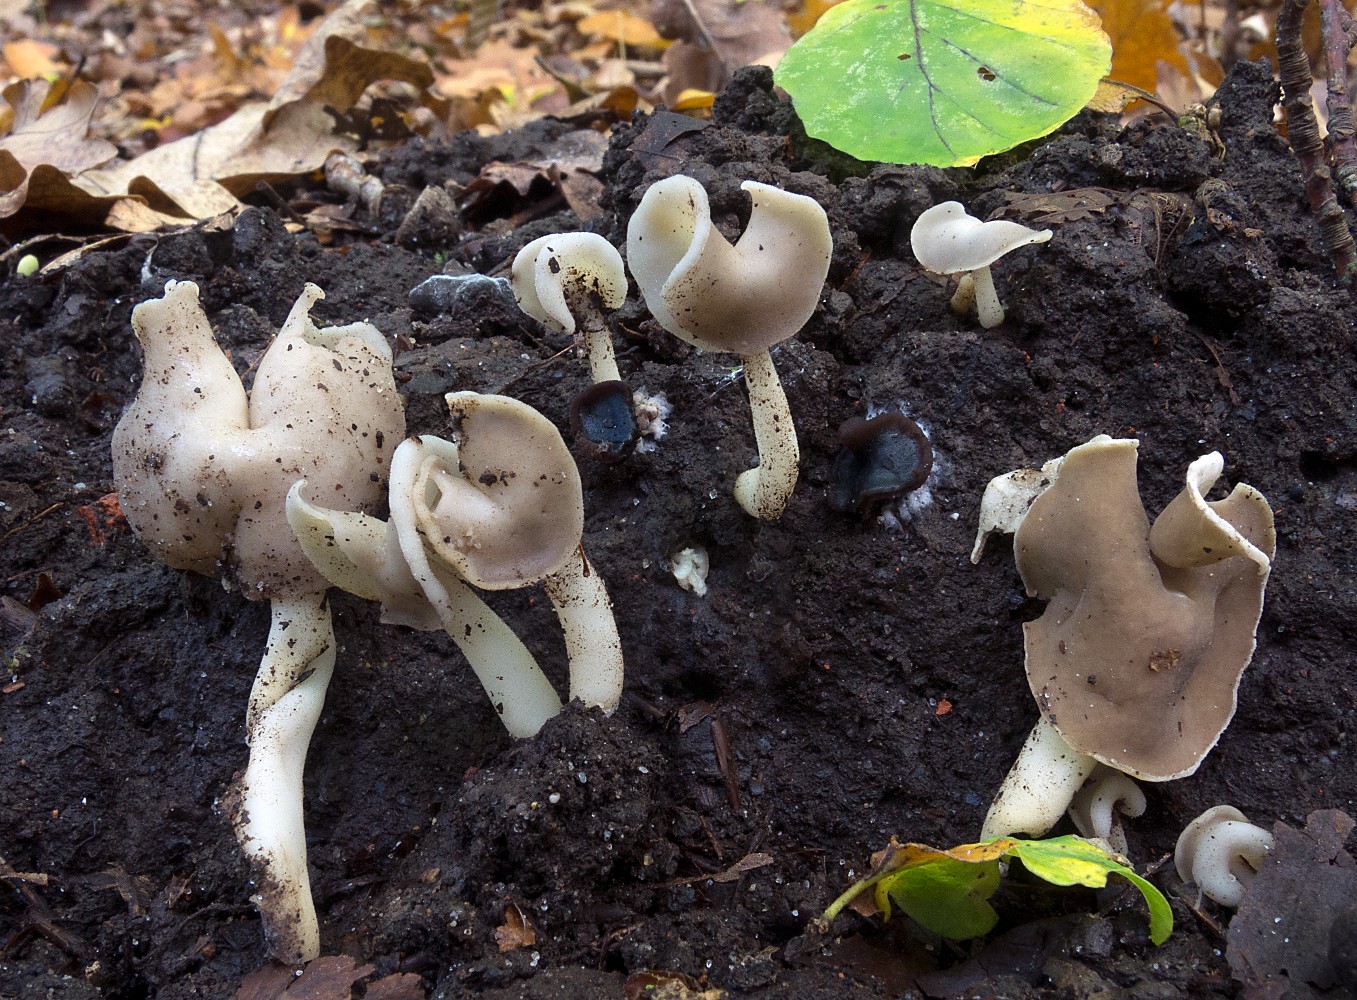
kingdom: Fungi
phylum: Ascomycota
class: Pezizomycetes
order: Pezizales
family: Helvellaceae
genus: Helvella
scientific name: Helvella latispora
